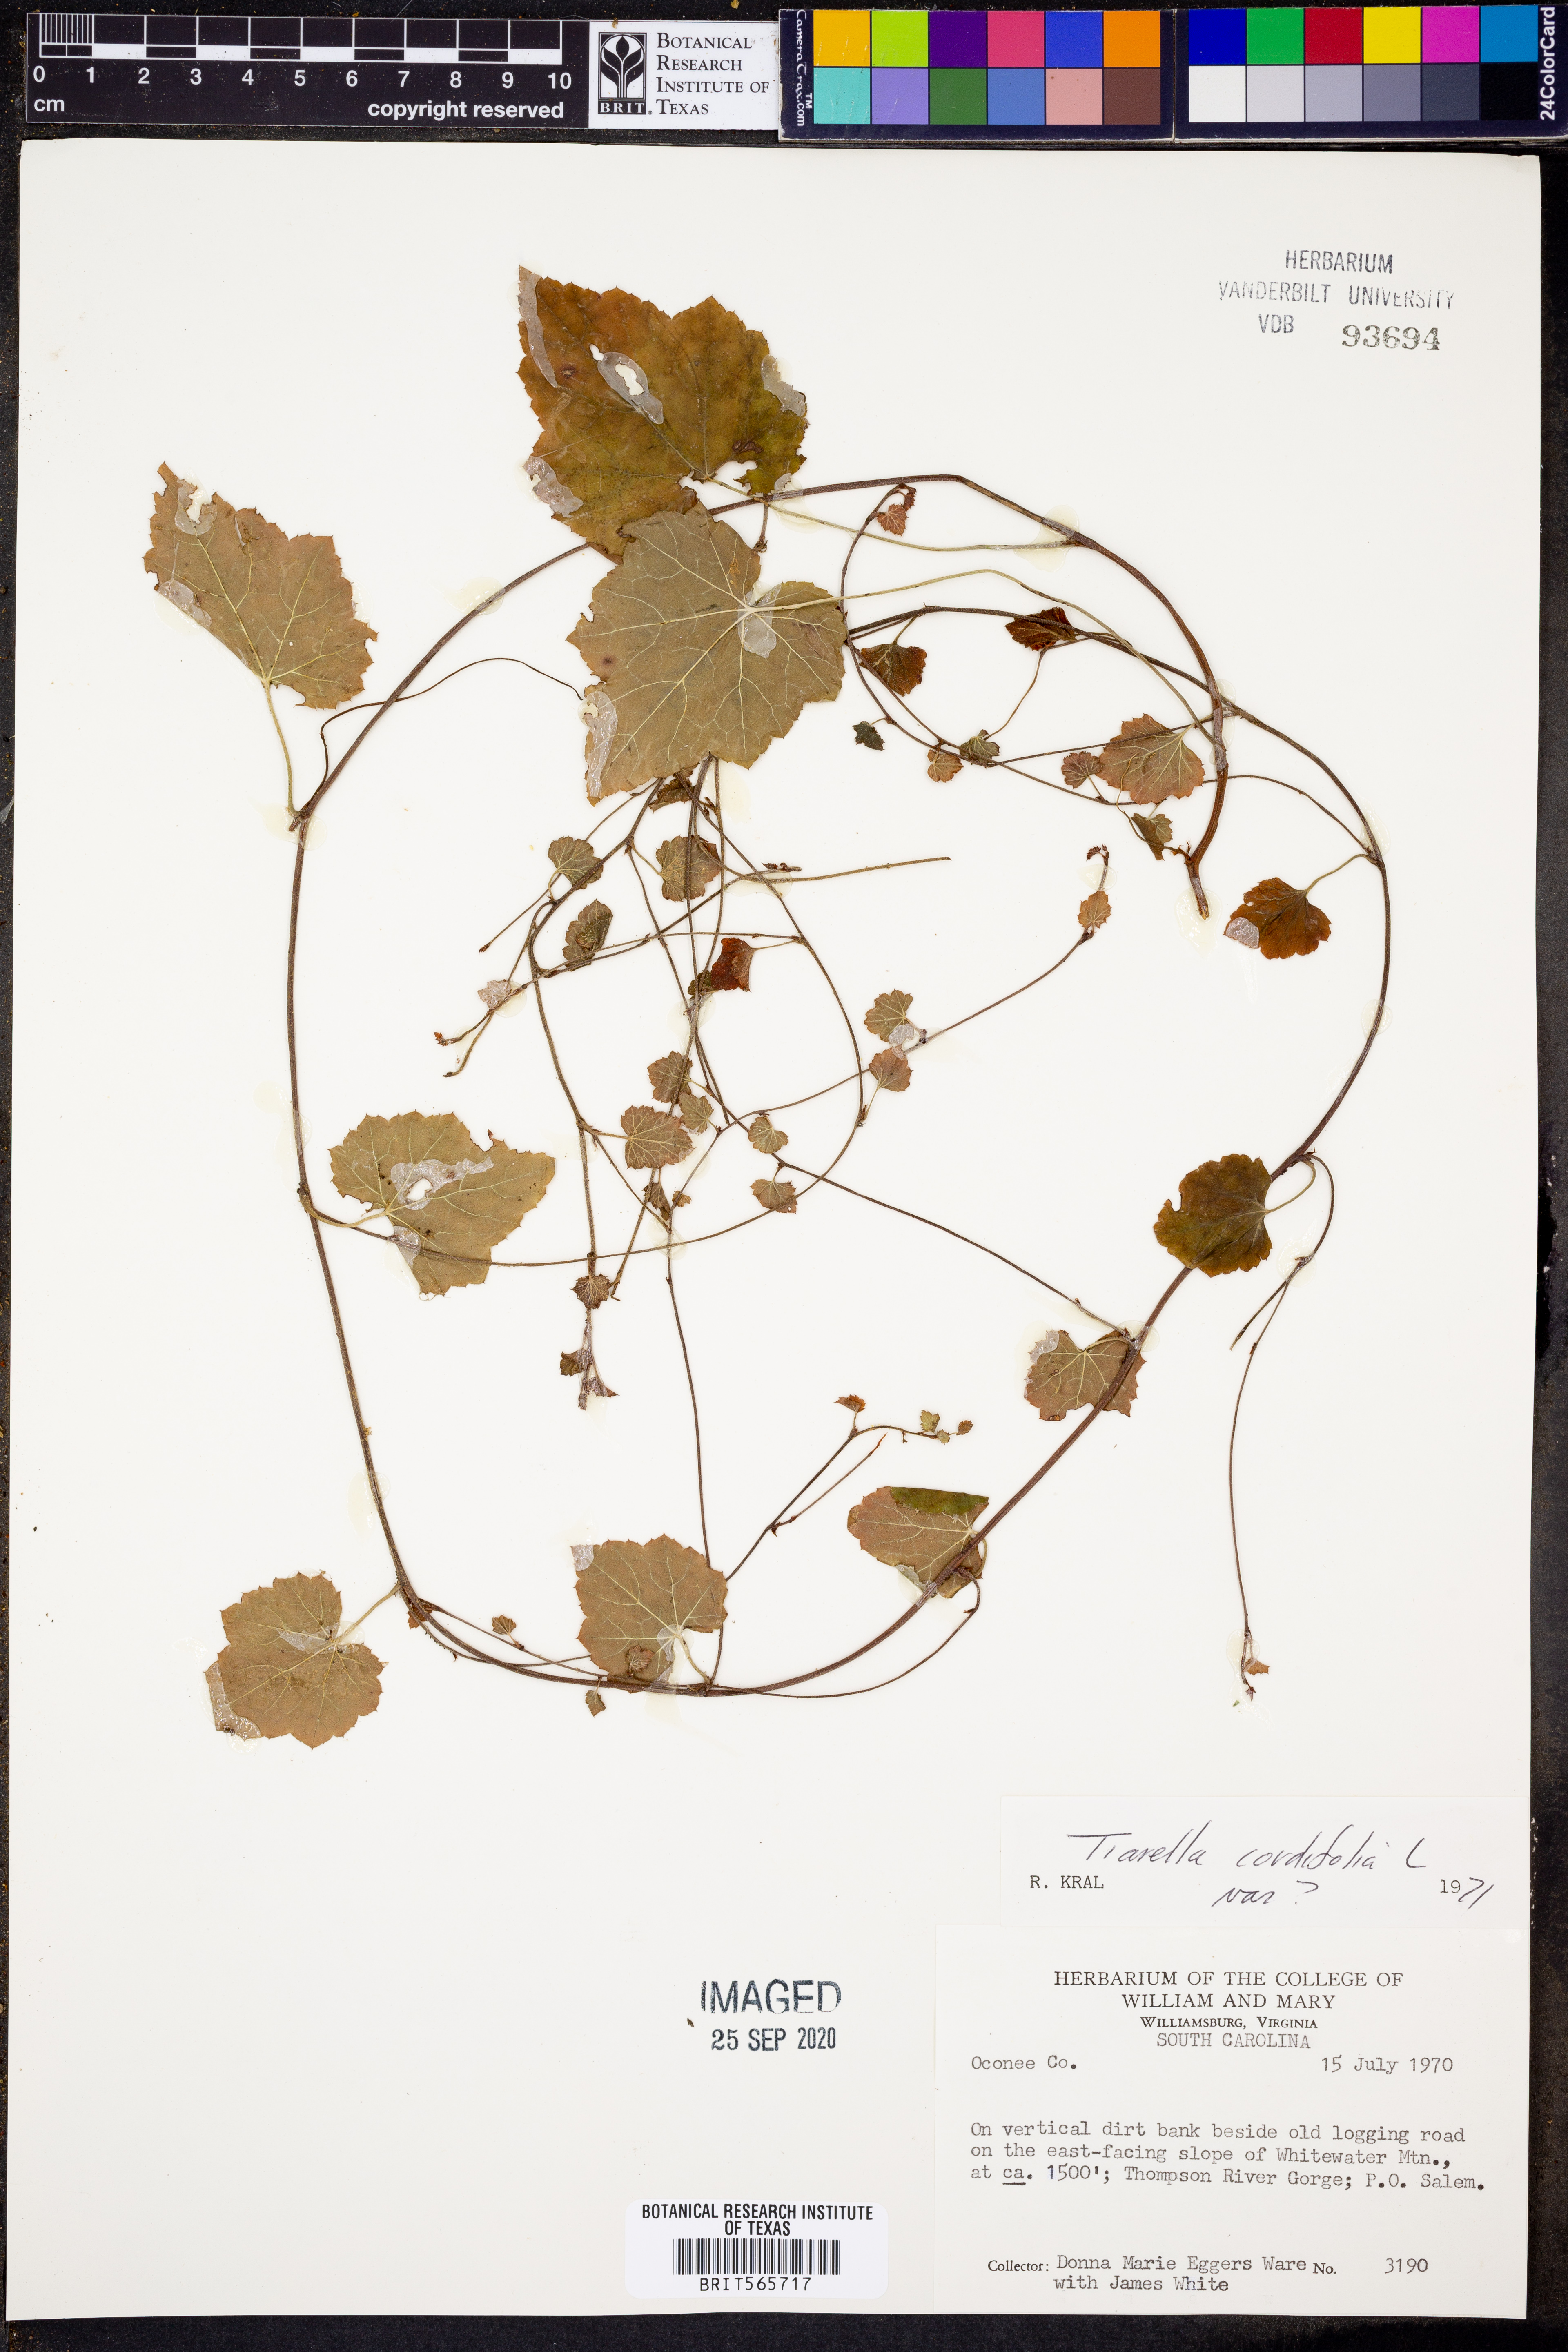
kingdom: Plantae
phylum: Tracheophyta
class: Magnoliopsida
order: Saxifragales
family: Saxifragaceae
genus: Tiarella
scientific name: Tiarella cordifolia
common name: Foamflower
